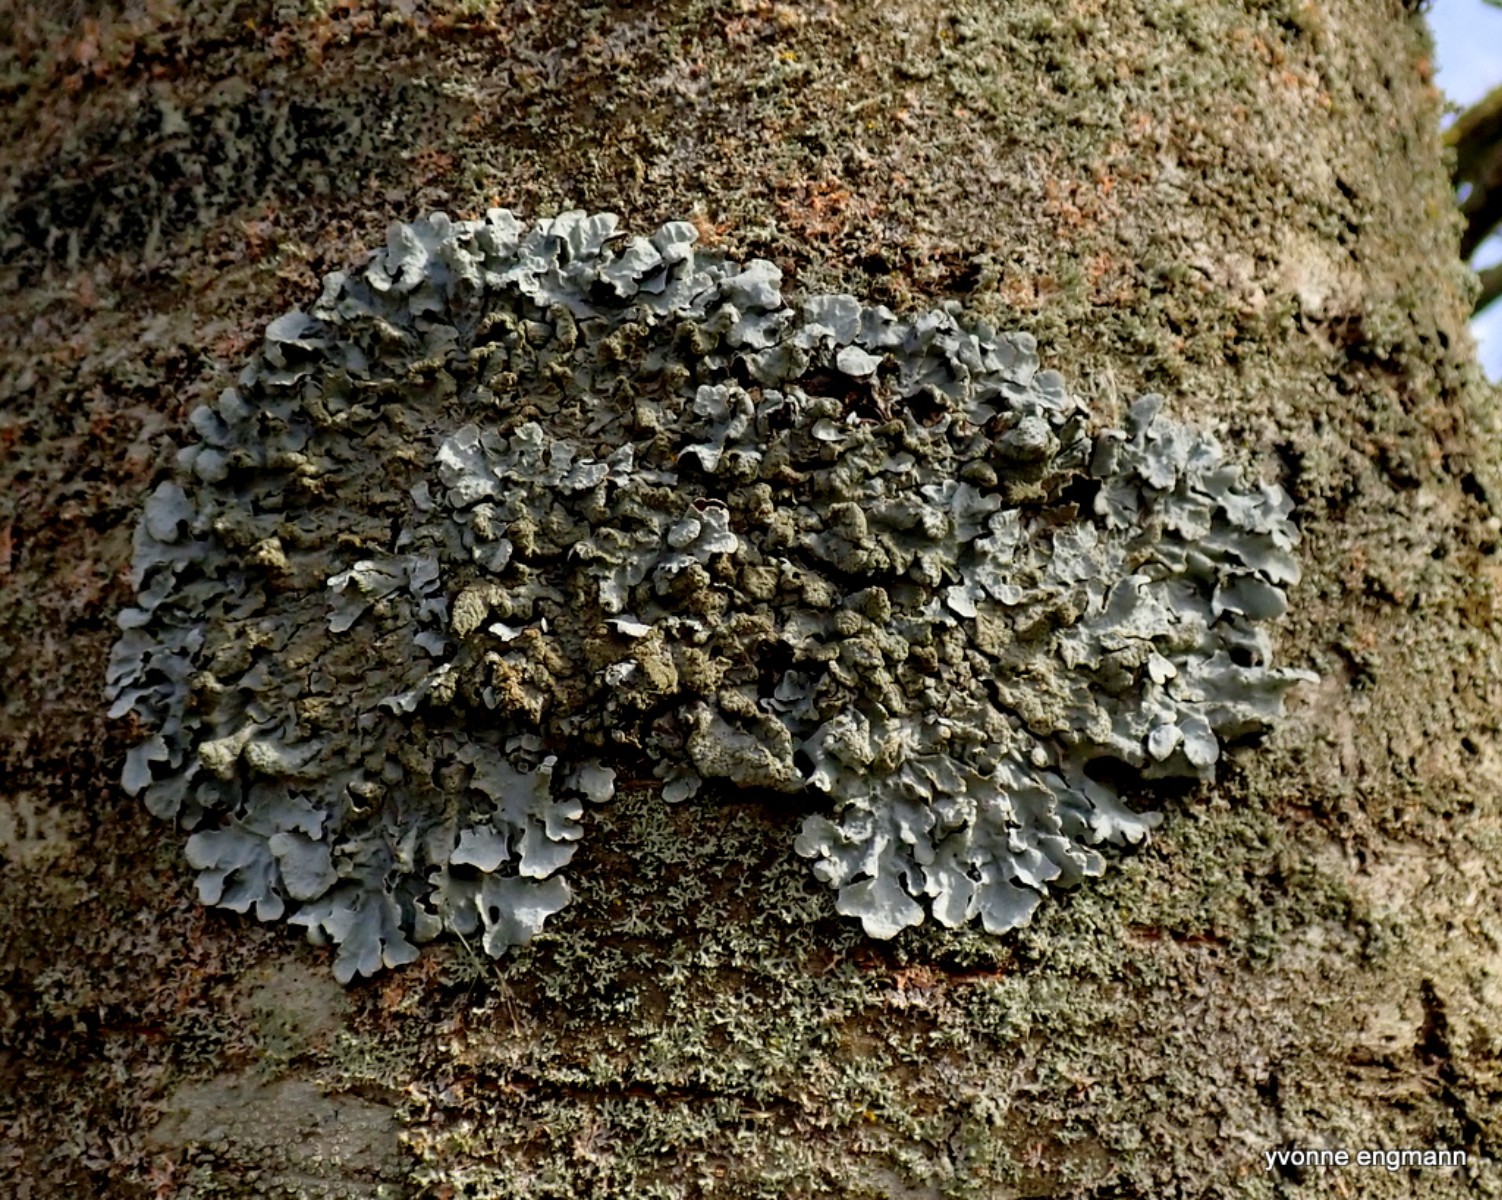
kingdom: Fungi
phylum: Ascomycota
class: Lecanoromycetes
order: Lecanorales
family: Parmeliaceae
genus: Parmelia
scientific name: Parmelia sulcata
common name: rynket skållav
